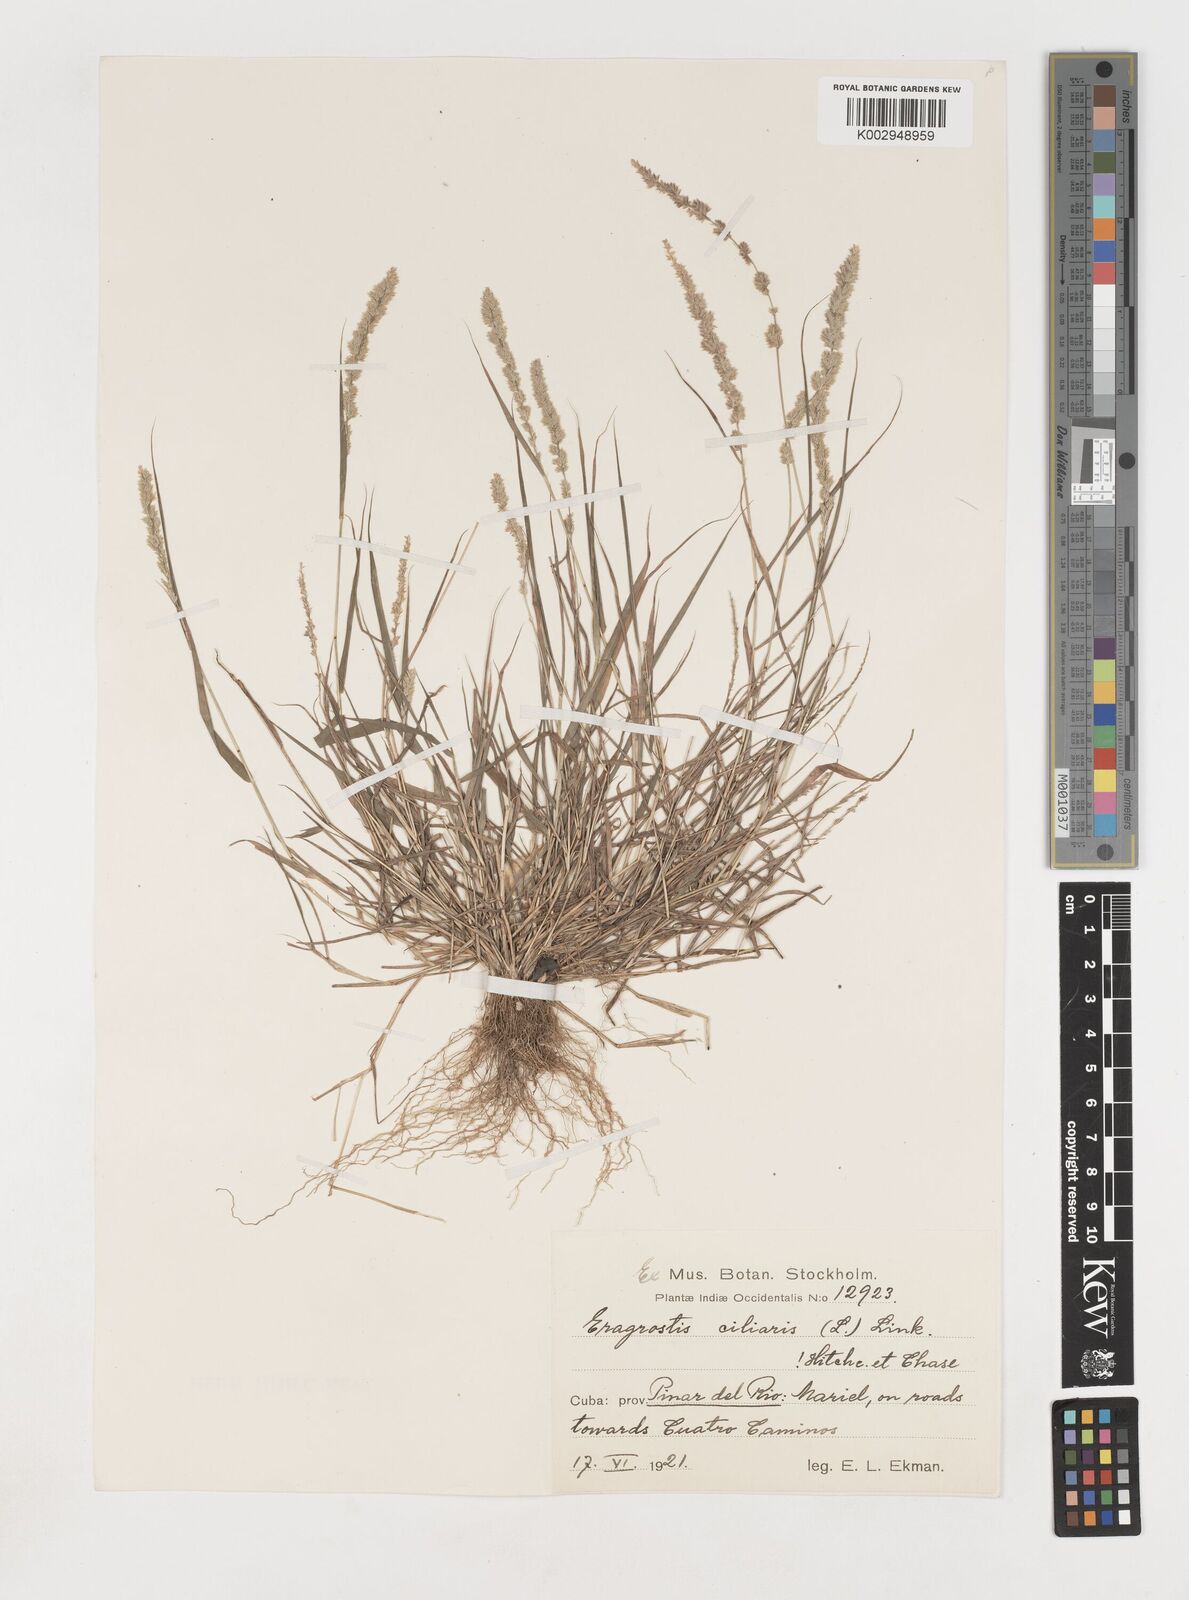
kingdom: Plantae
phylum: Tracheophyta
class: Liliopsida
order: Poales
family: Poaceae
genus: Eragrostis
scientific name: Eragrostis ciliaris
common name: Gophertail lovegrass
